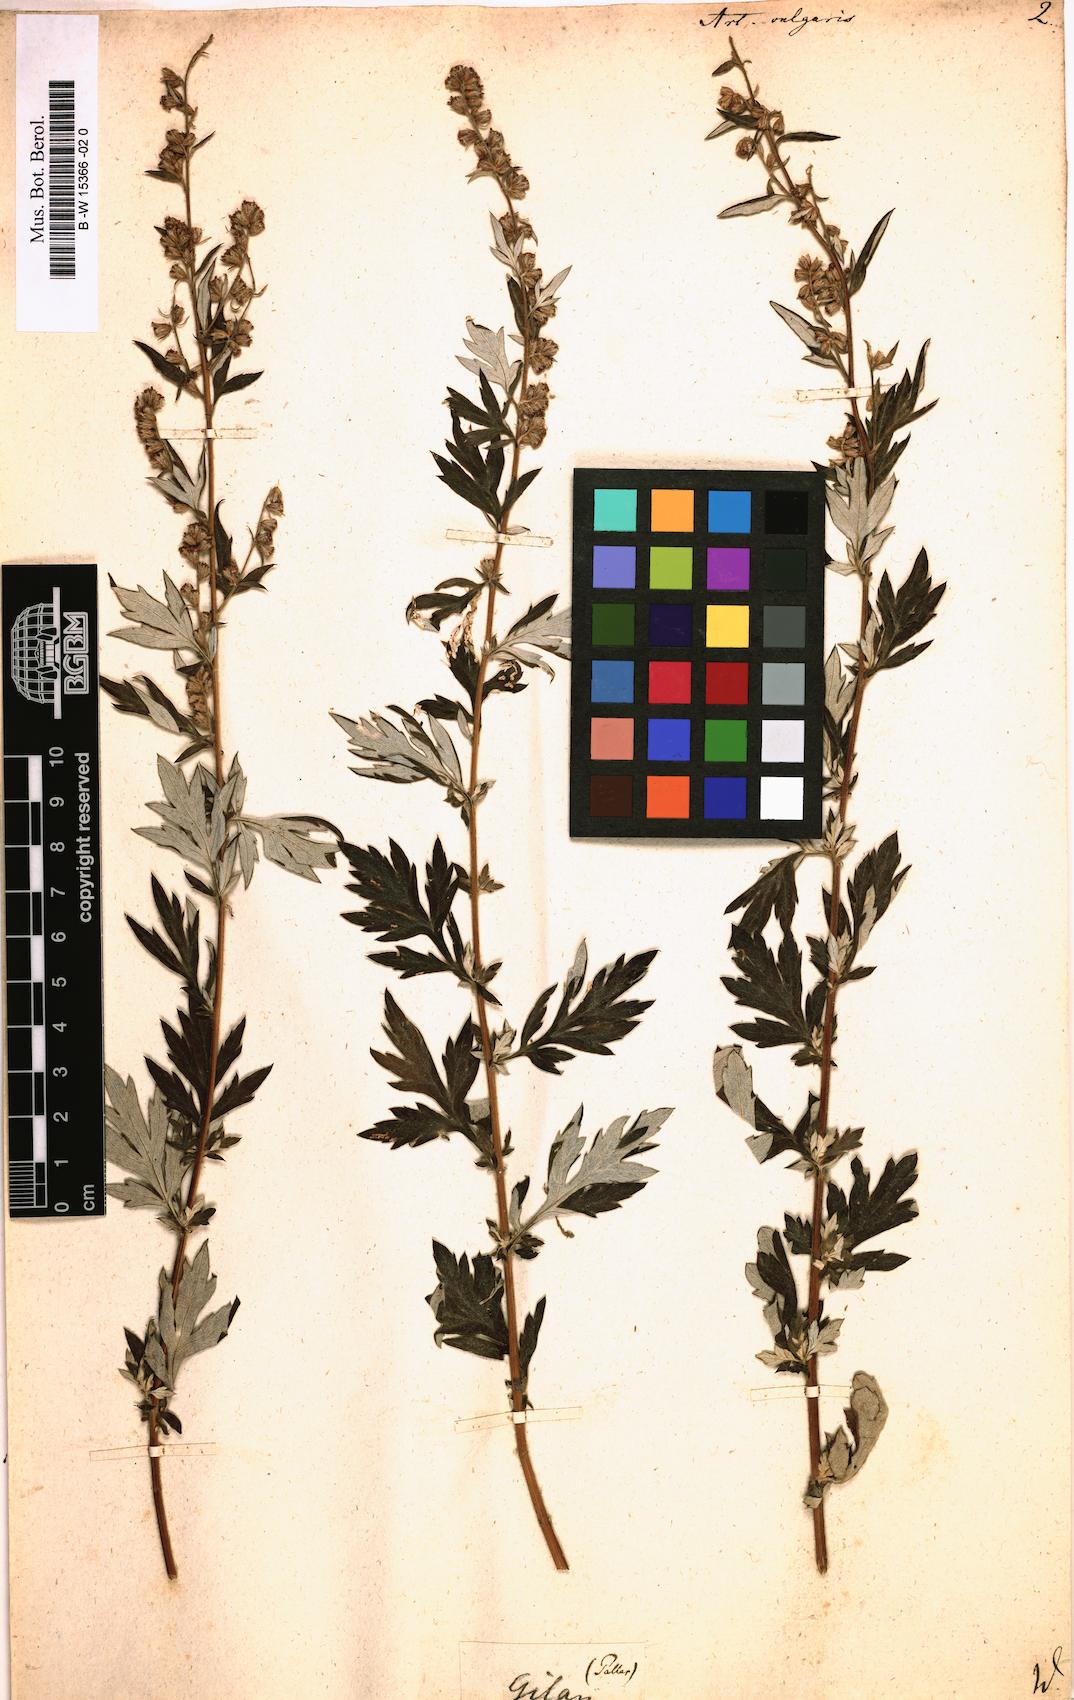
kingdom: Plantae
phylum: Tracheophyta
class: Magnoliopsida
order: Asterales
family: Asteraceae
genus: Artemisia
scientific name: Artemisia vulgaris
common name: Mugwort
